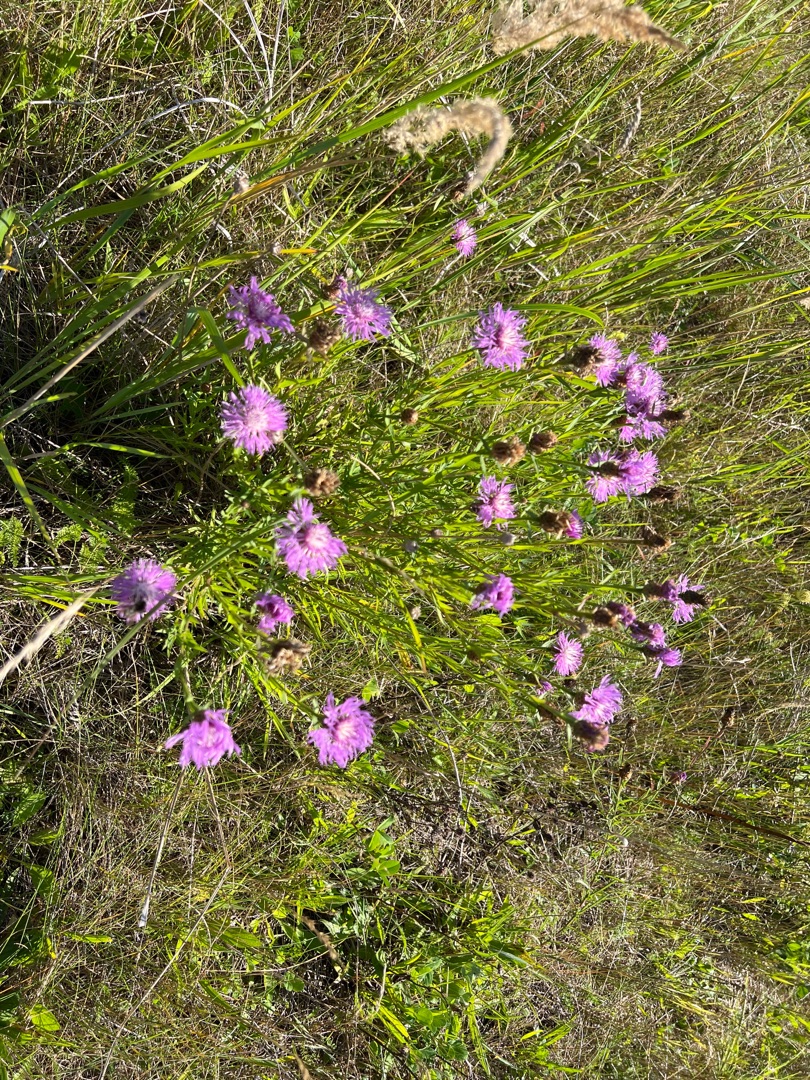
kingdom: Plantae
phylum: Tracheophyta
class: Magnoliopsida
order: Asterales
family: Asteraceae
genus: Centaurea
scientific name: Centaurea jacea
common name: Almindelig knopurt
